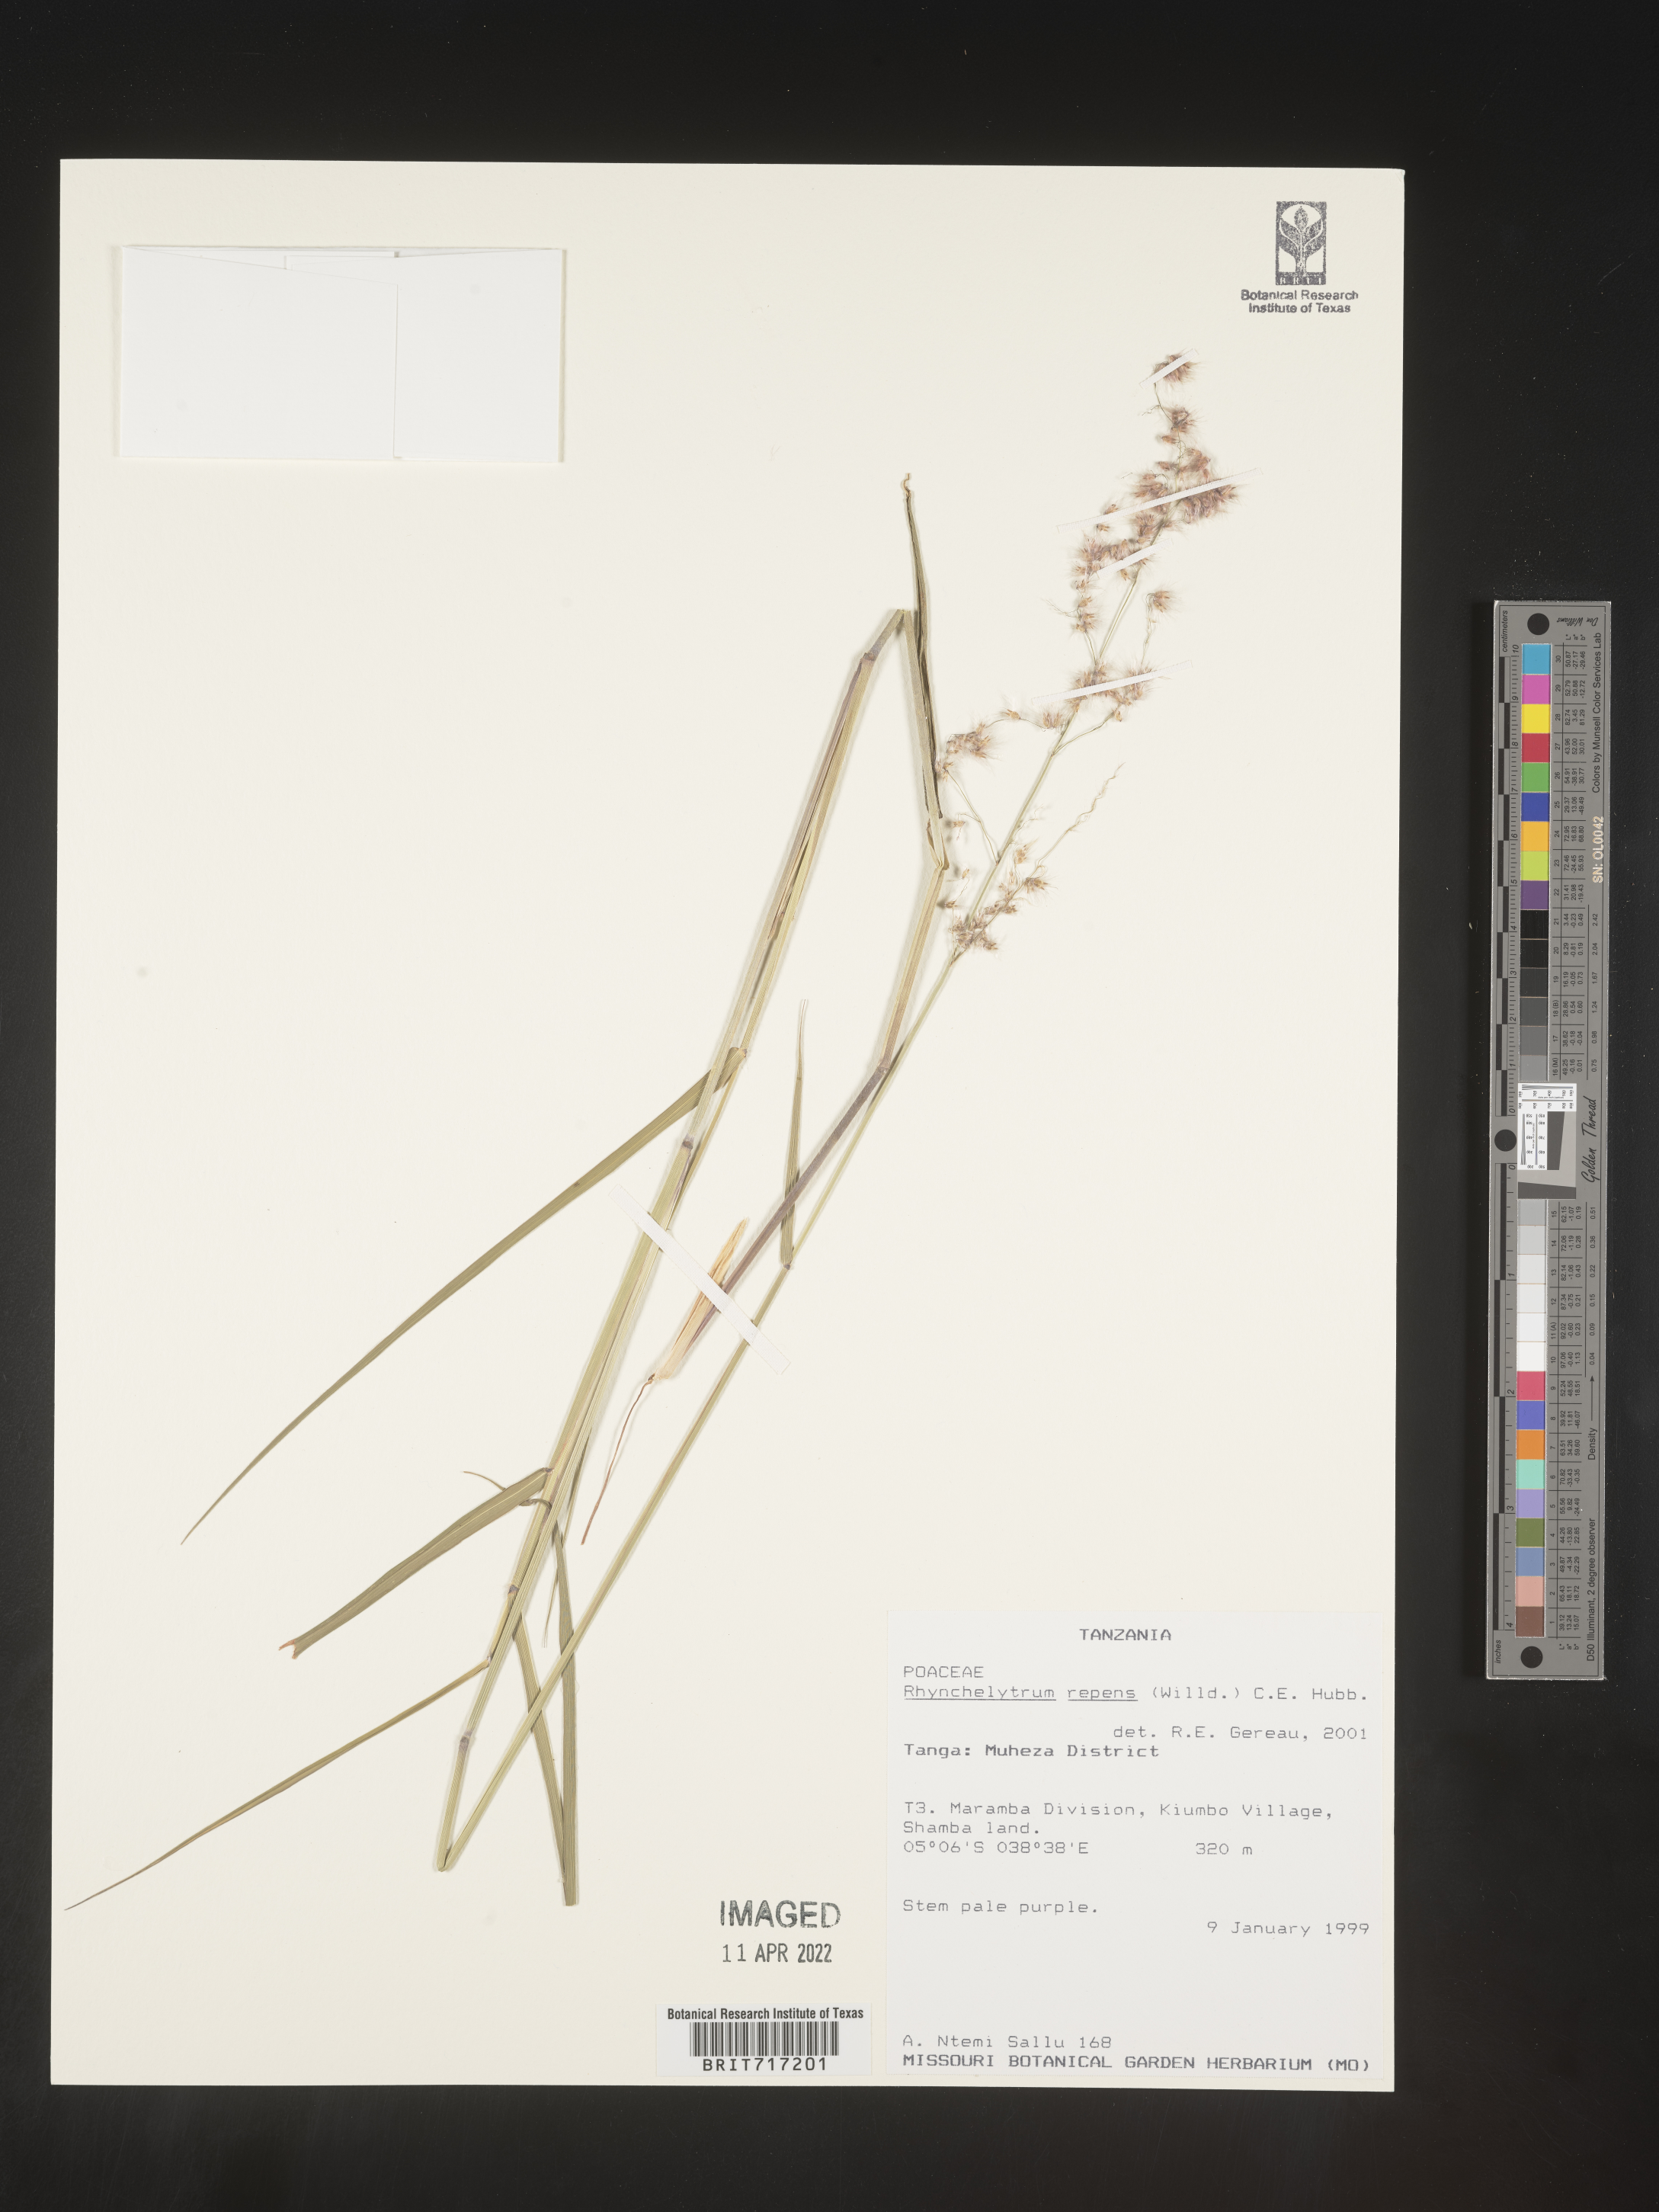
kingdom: Plantae
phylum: Tracheophyta
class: Liliopsida
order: Poales
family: Poaceae
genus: Rhynchelytrum
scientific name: Rhynchelytrum
